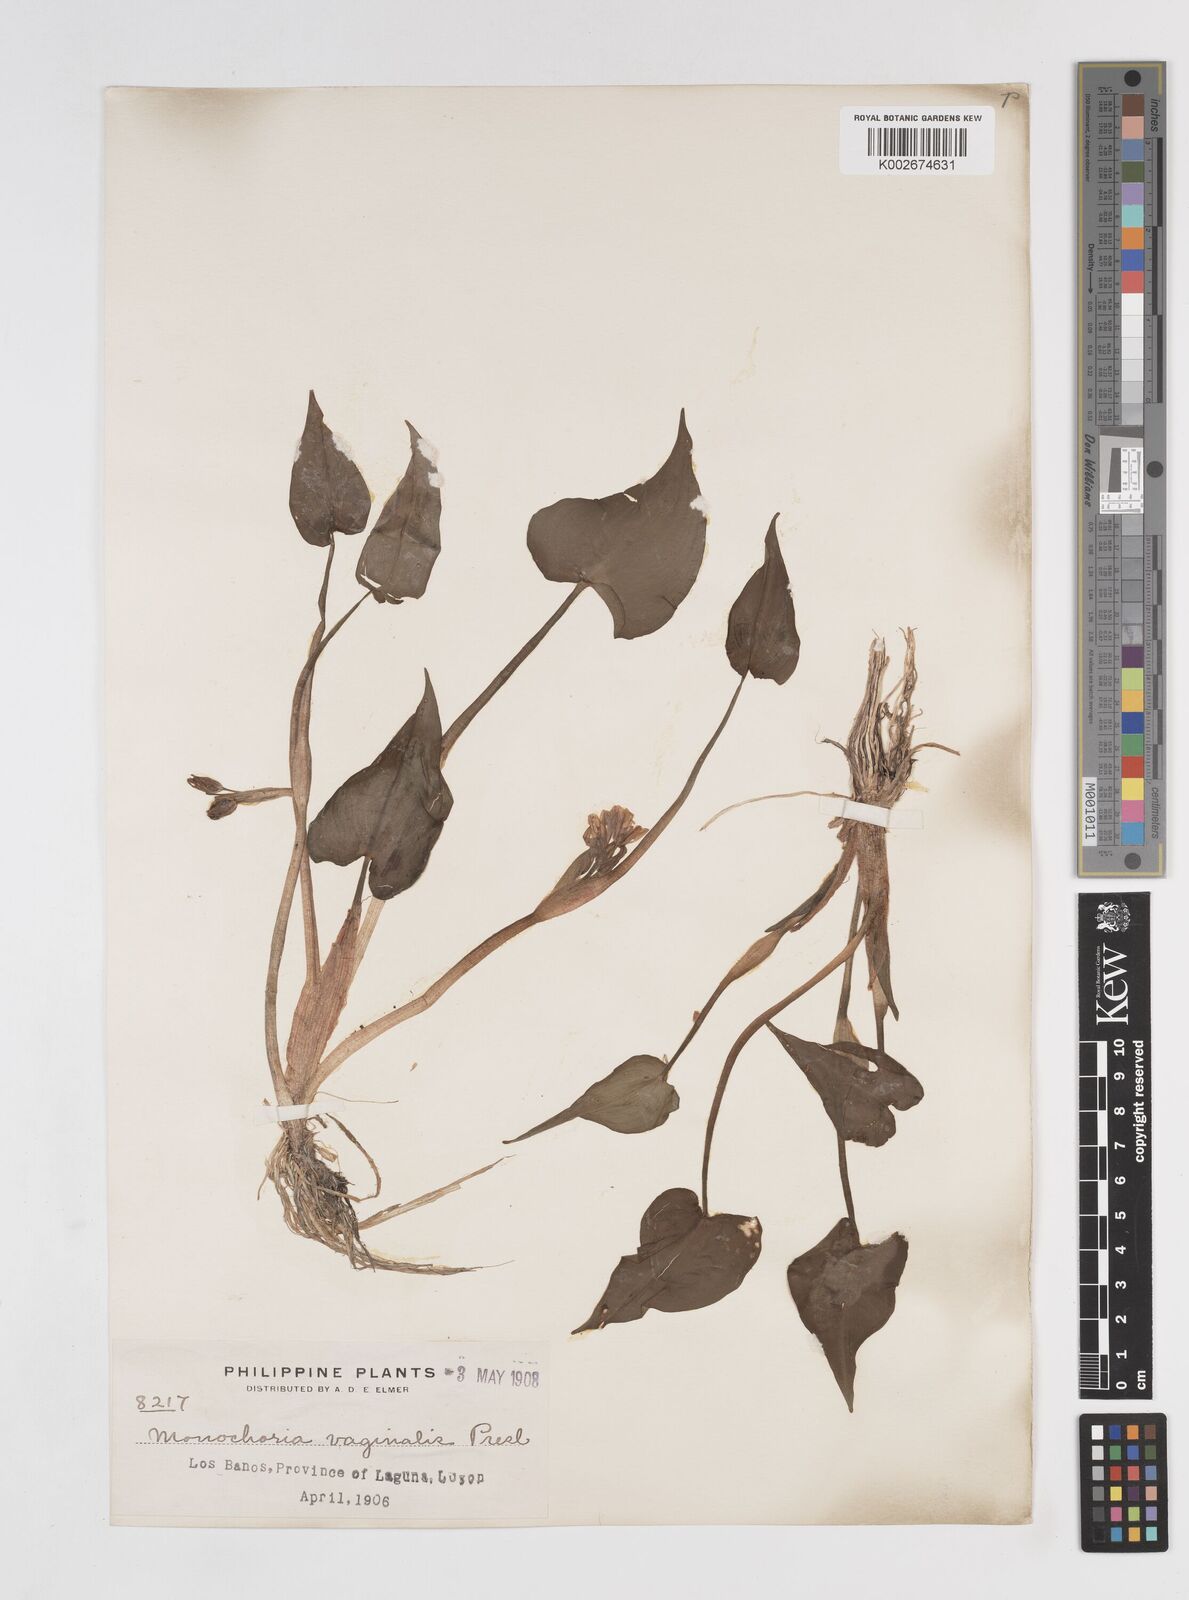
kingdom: Plantae
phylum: Tracheophyta
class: Liliopsida
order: Commelinales
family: Pontederiaceae
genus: Pontederia
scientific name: Pontederia vaginalis
